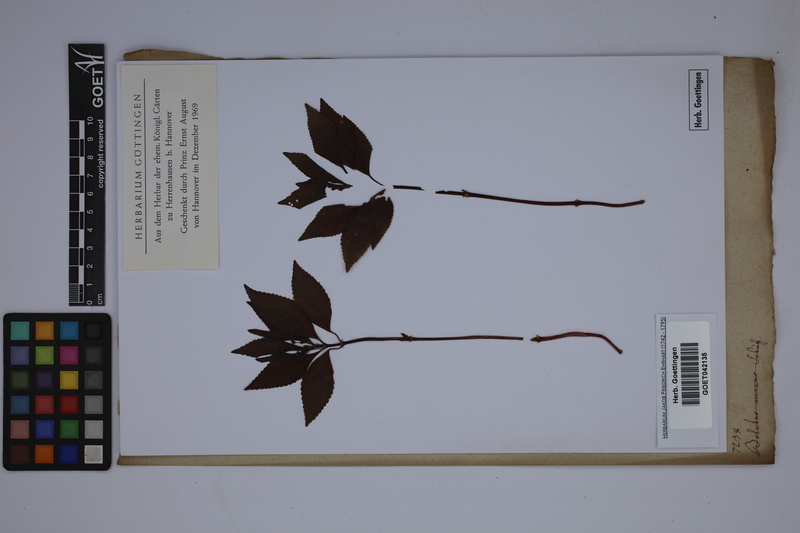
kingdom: Plantae
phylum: Tracheophyta
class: Magnoliopsida
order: Malpighiales
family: Euphorbiaceae
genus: Mercurialis
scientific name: Mercurialis perennis
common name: Dog mercury
